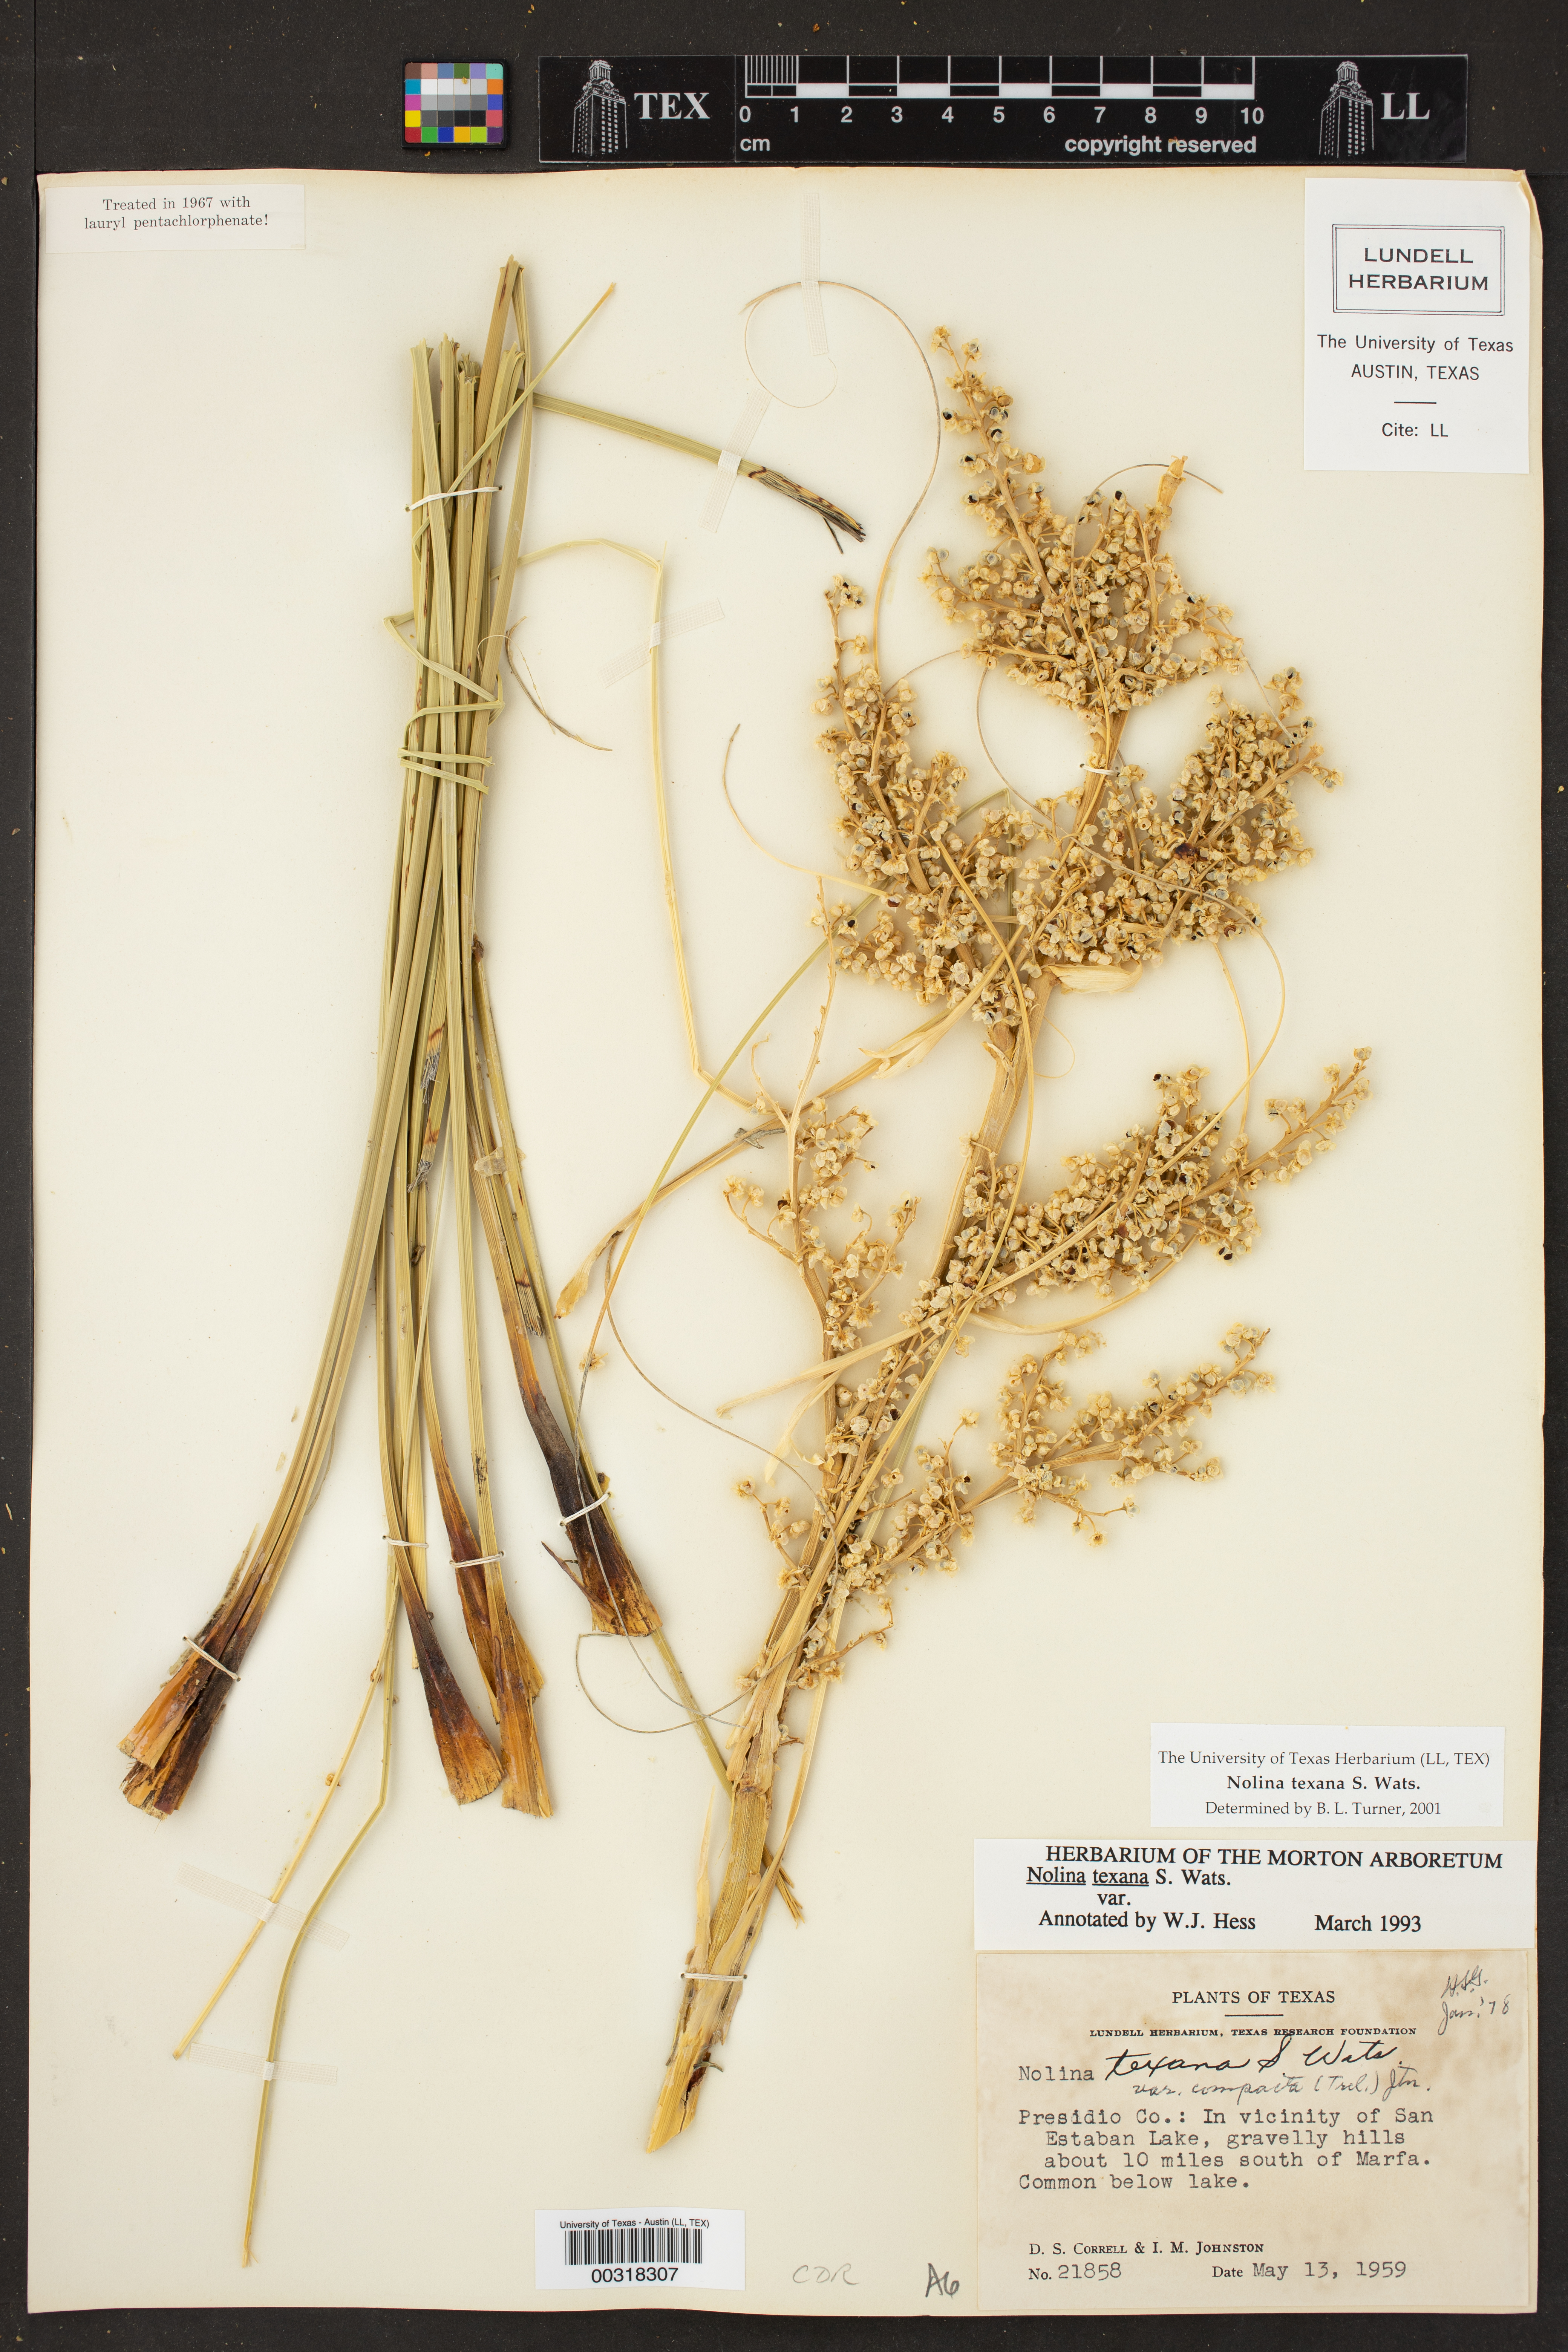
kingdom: Plantae
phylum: Tracheophyta
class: Liliopsida
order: Asparagales
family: Asparagaceae
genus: Nolina
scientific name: Nolina texana
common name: Texas sacahuiste
